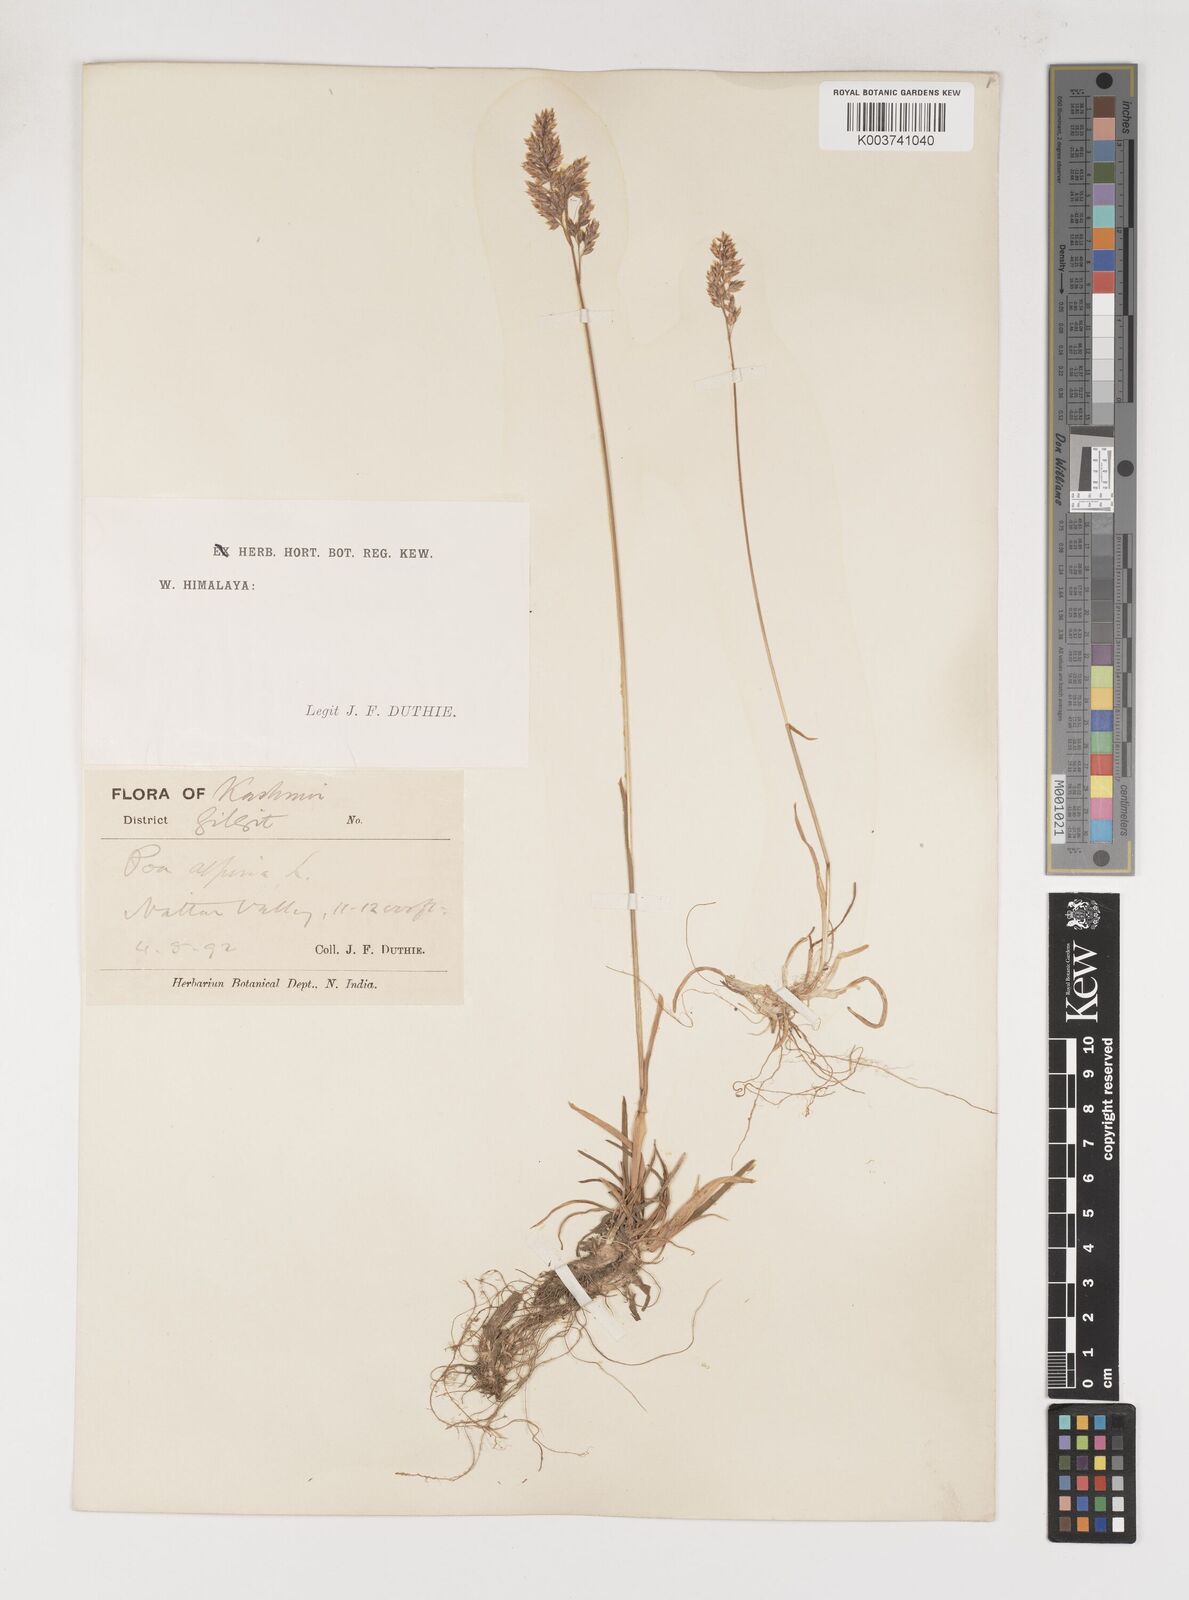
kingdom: Plantae
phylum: Tracheophyta
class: Liliopsida
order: Poales
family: Poaceae
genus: Poa
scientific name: Poa alpina
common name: Alpine bluegrass
